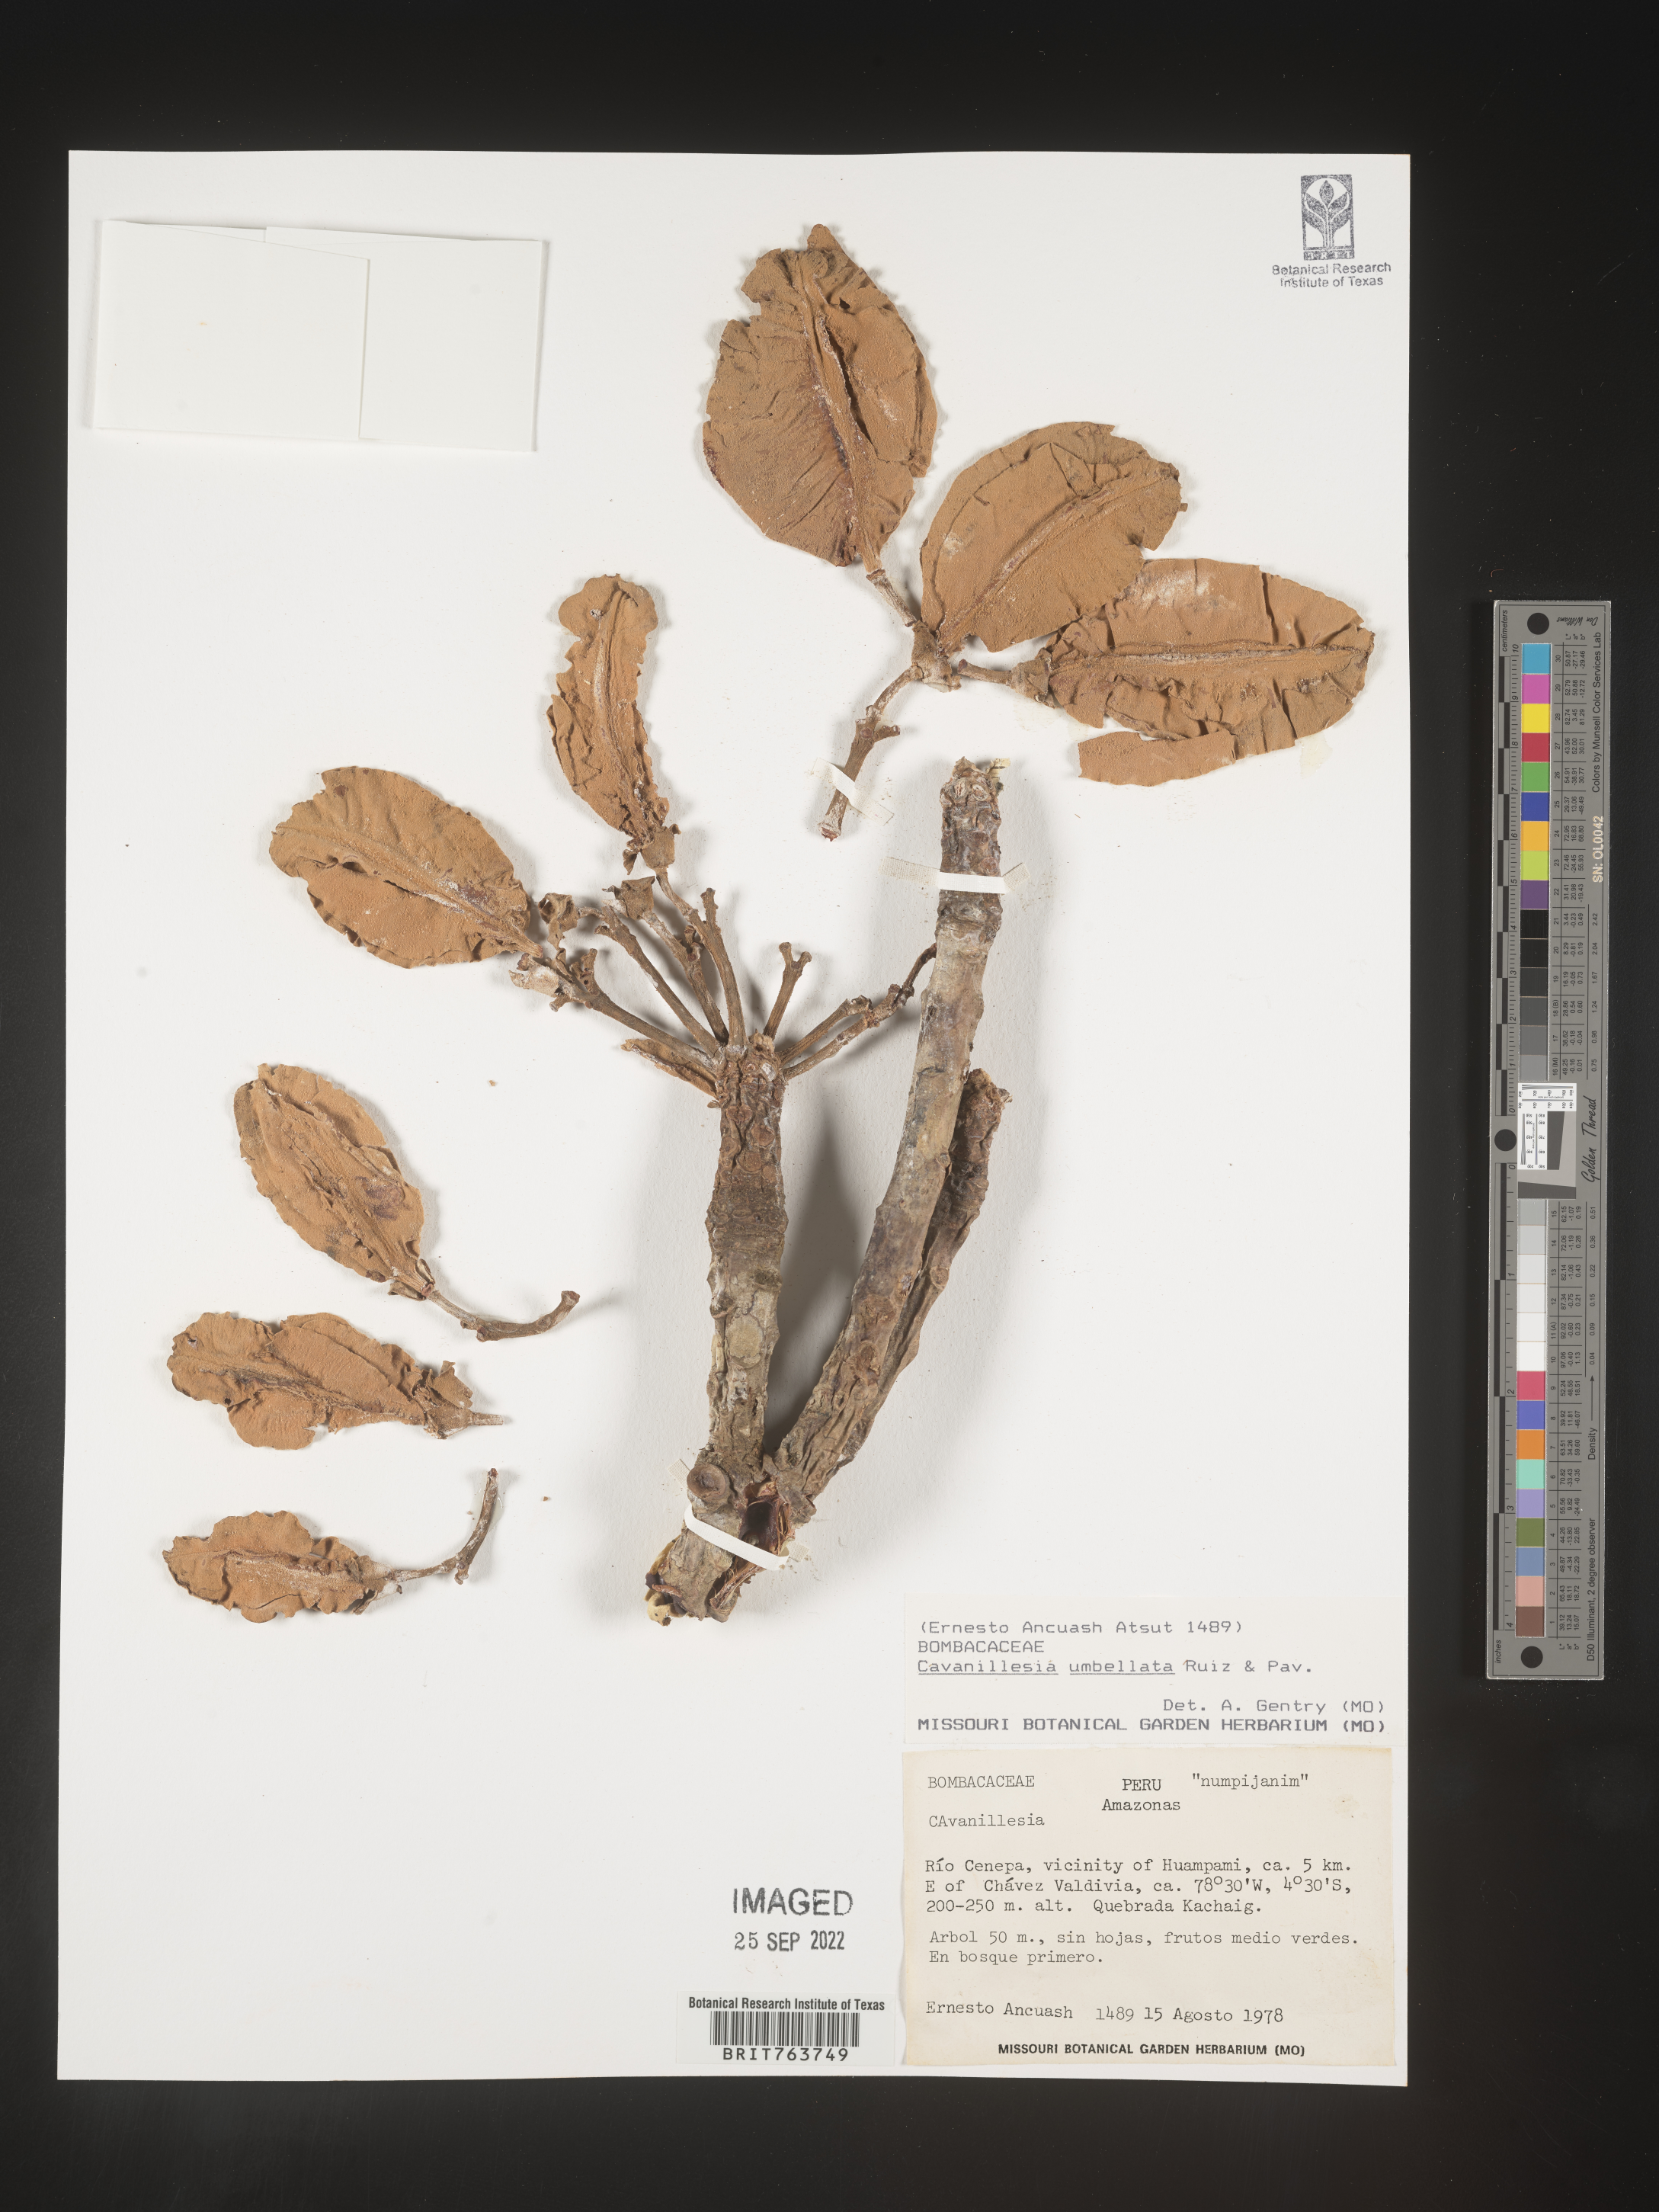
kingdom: Plantae
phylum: Tracheophyta
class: Magnoliopsida
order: Malvales
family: Malvaceae
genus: Cavanillesia
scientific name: Cavanillesia
